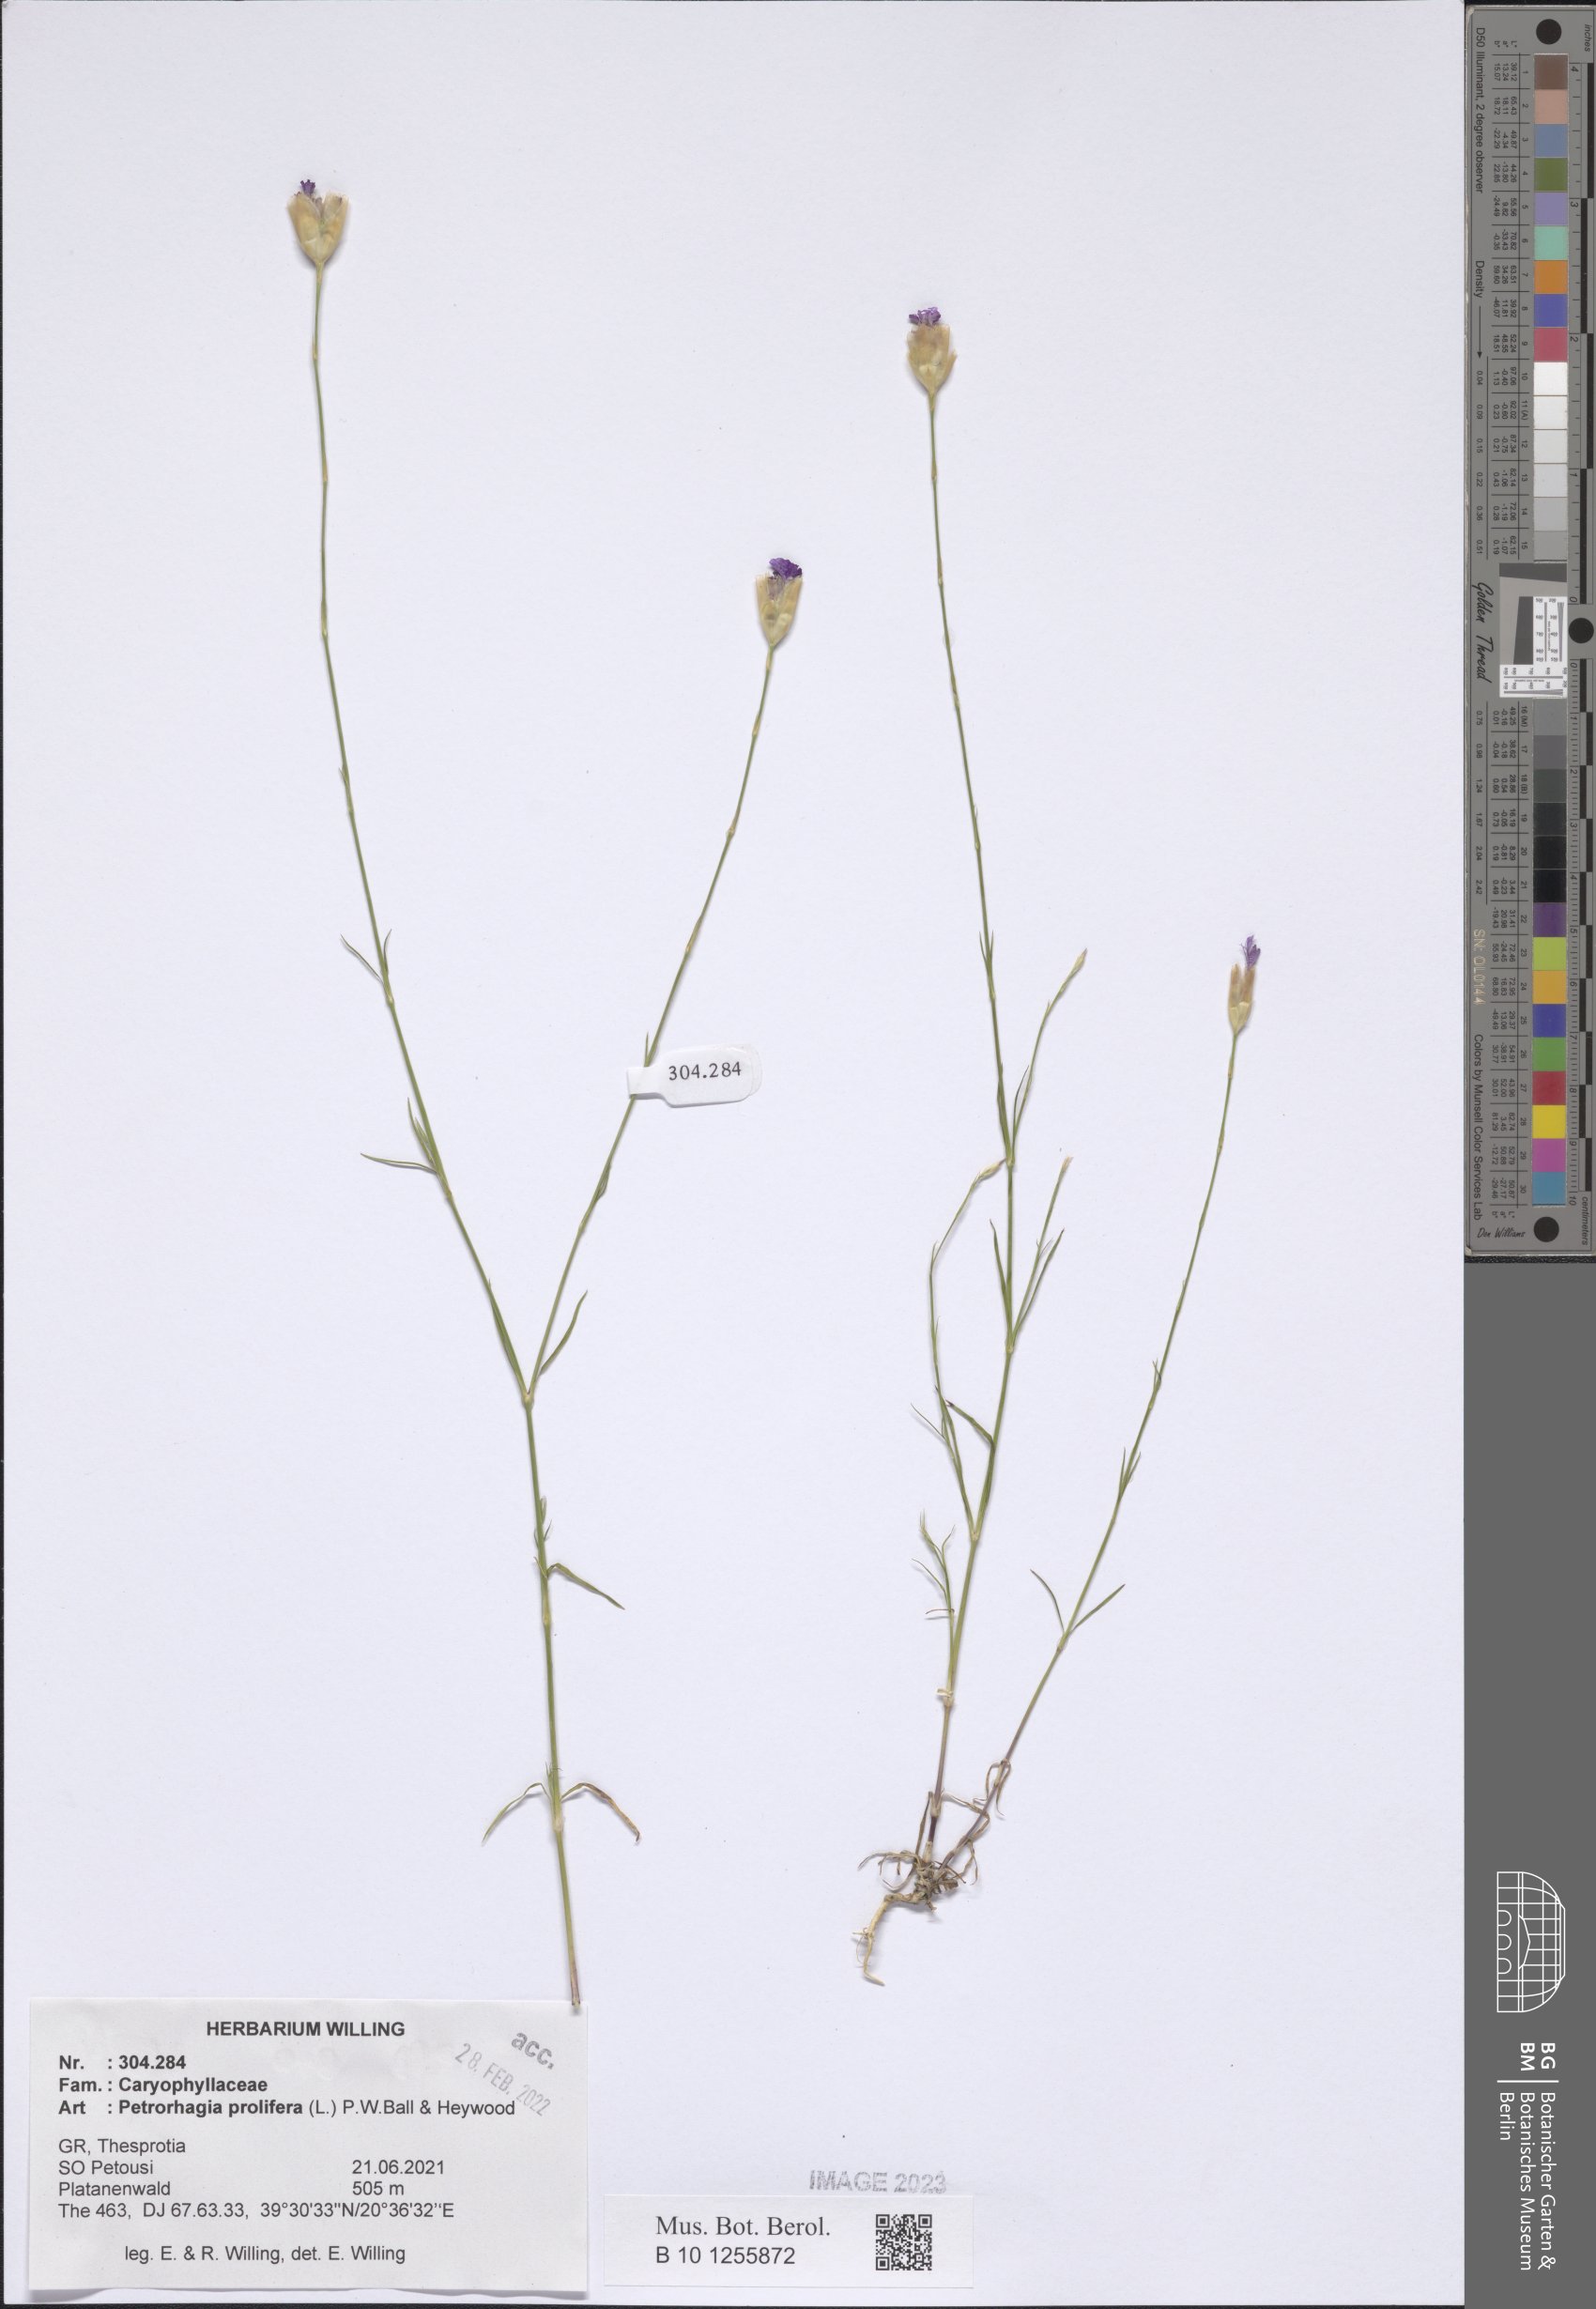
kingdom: Plantae
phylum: Tracheophyta
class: Magnoliopsida
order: Caryophyllales
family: Caryophyllaceae
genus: Petrorhagia
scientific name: Petrorhagia prolifera
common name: Proliferous pink
